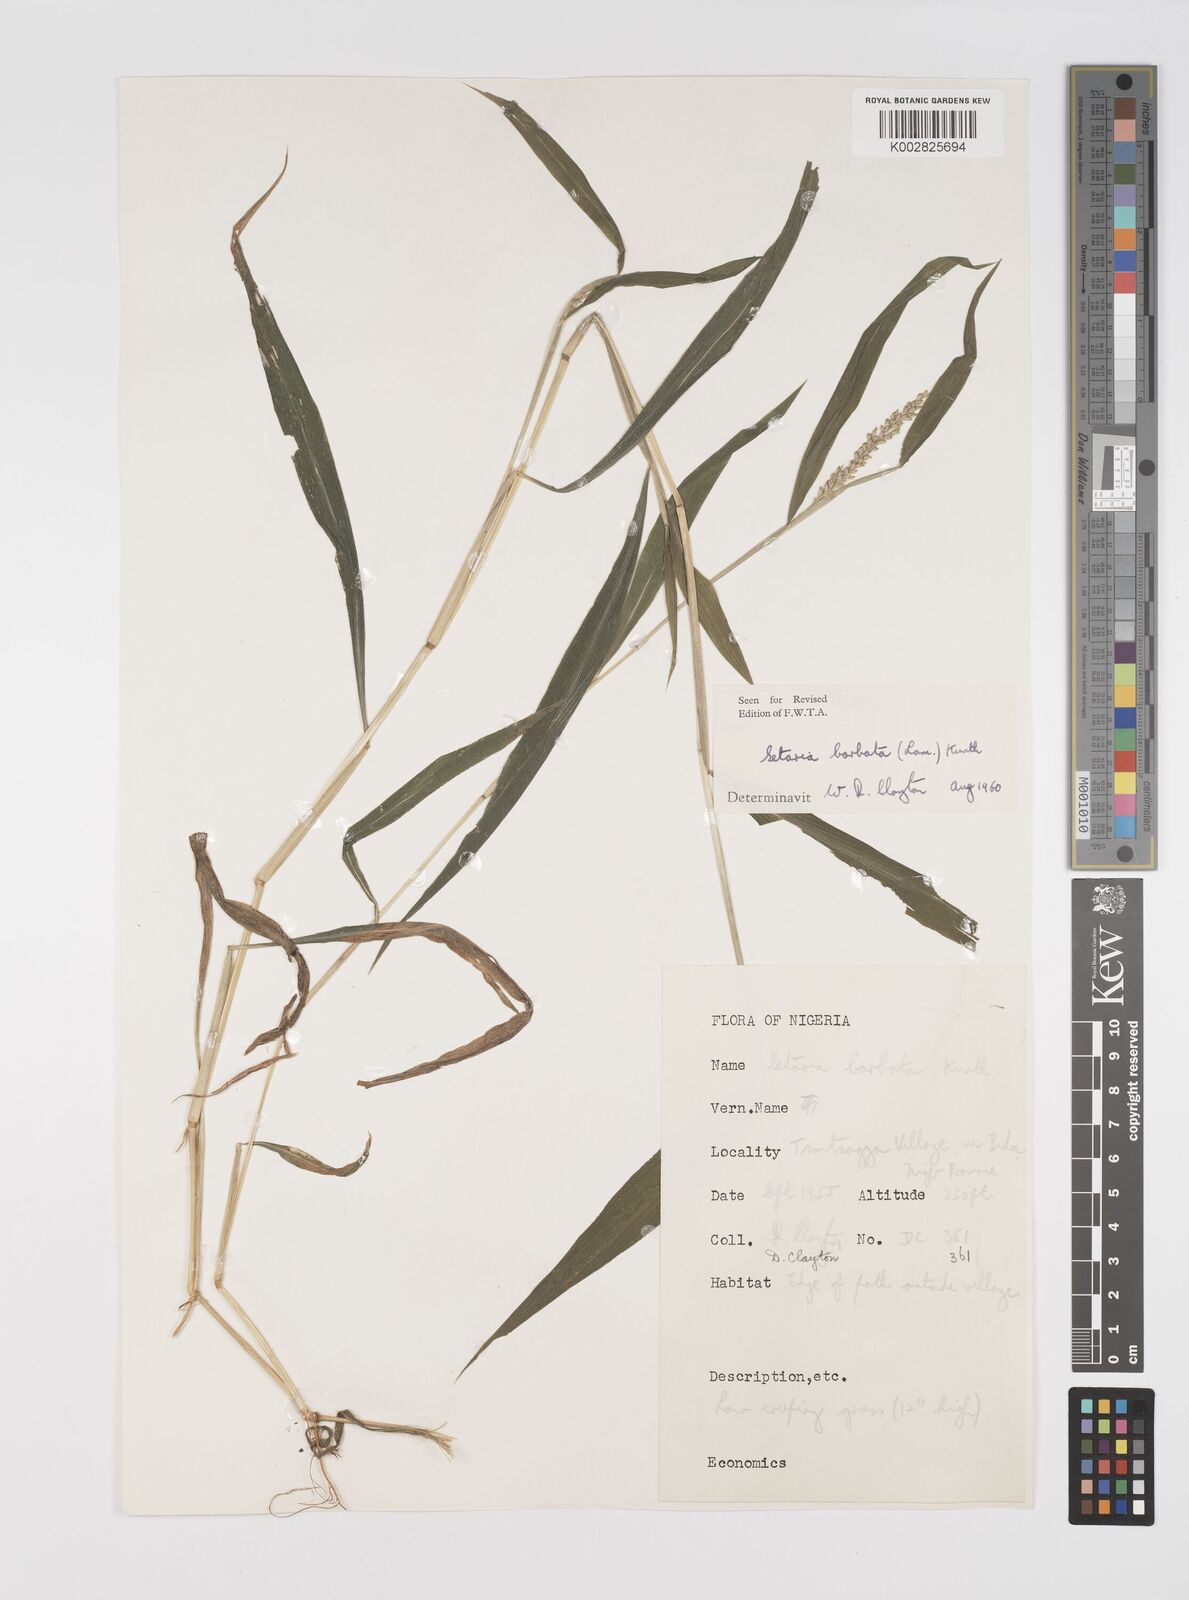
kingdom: Plantae
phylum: Tracheophyta
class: Liliopsida
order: Poales
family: Poaceae
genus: Setaria
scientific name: Setaria barbata
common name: East indian bristlegrass
